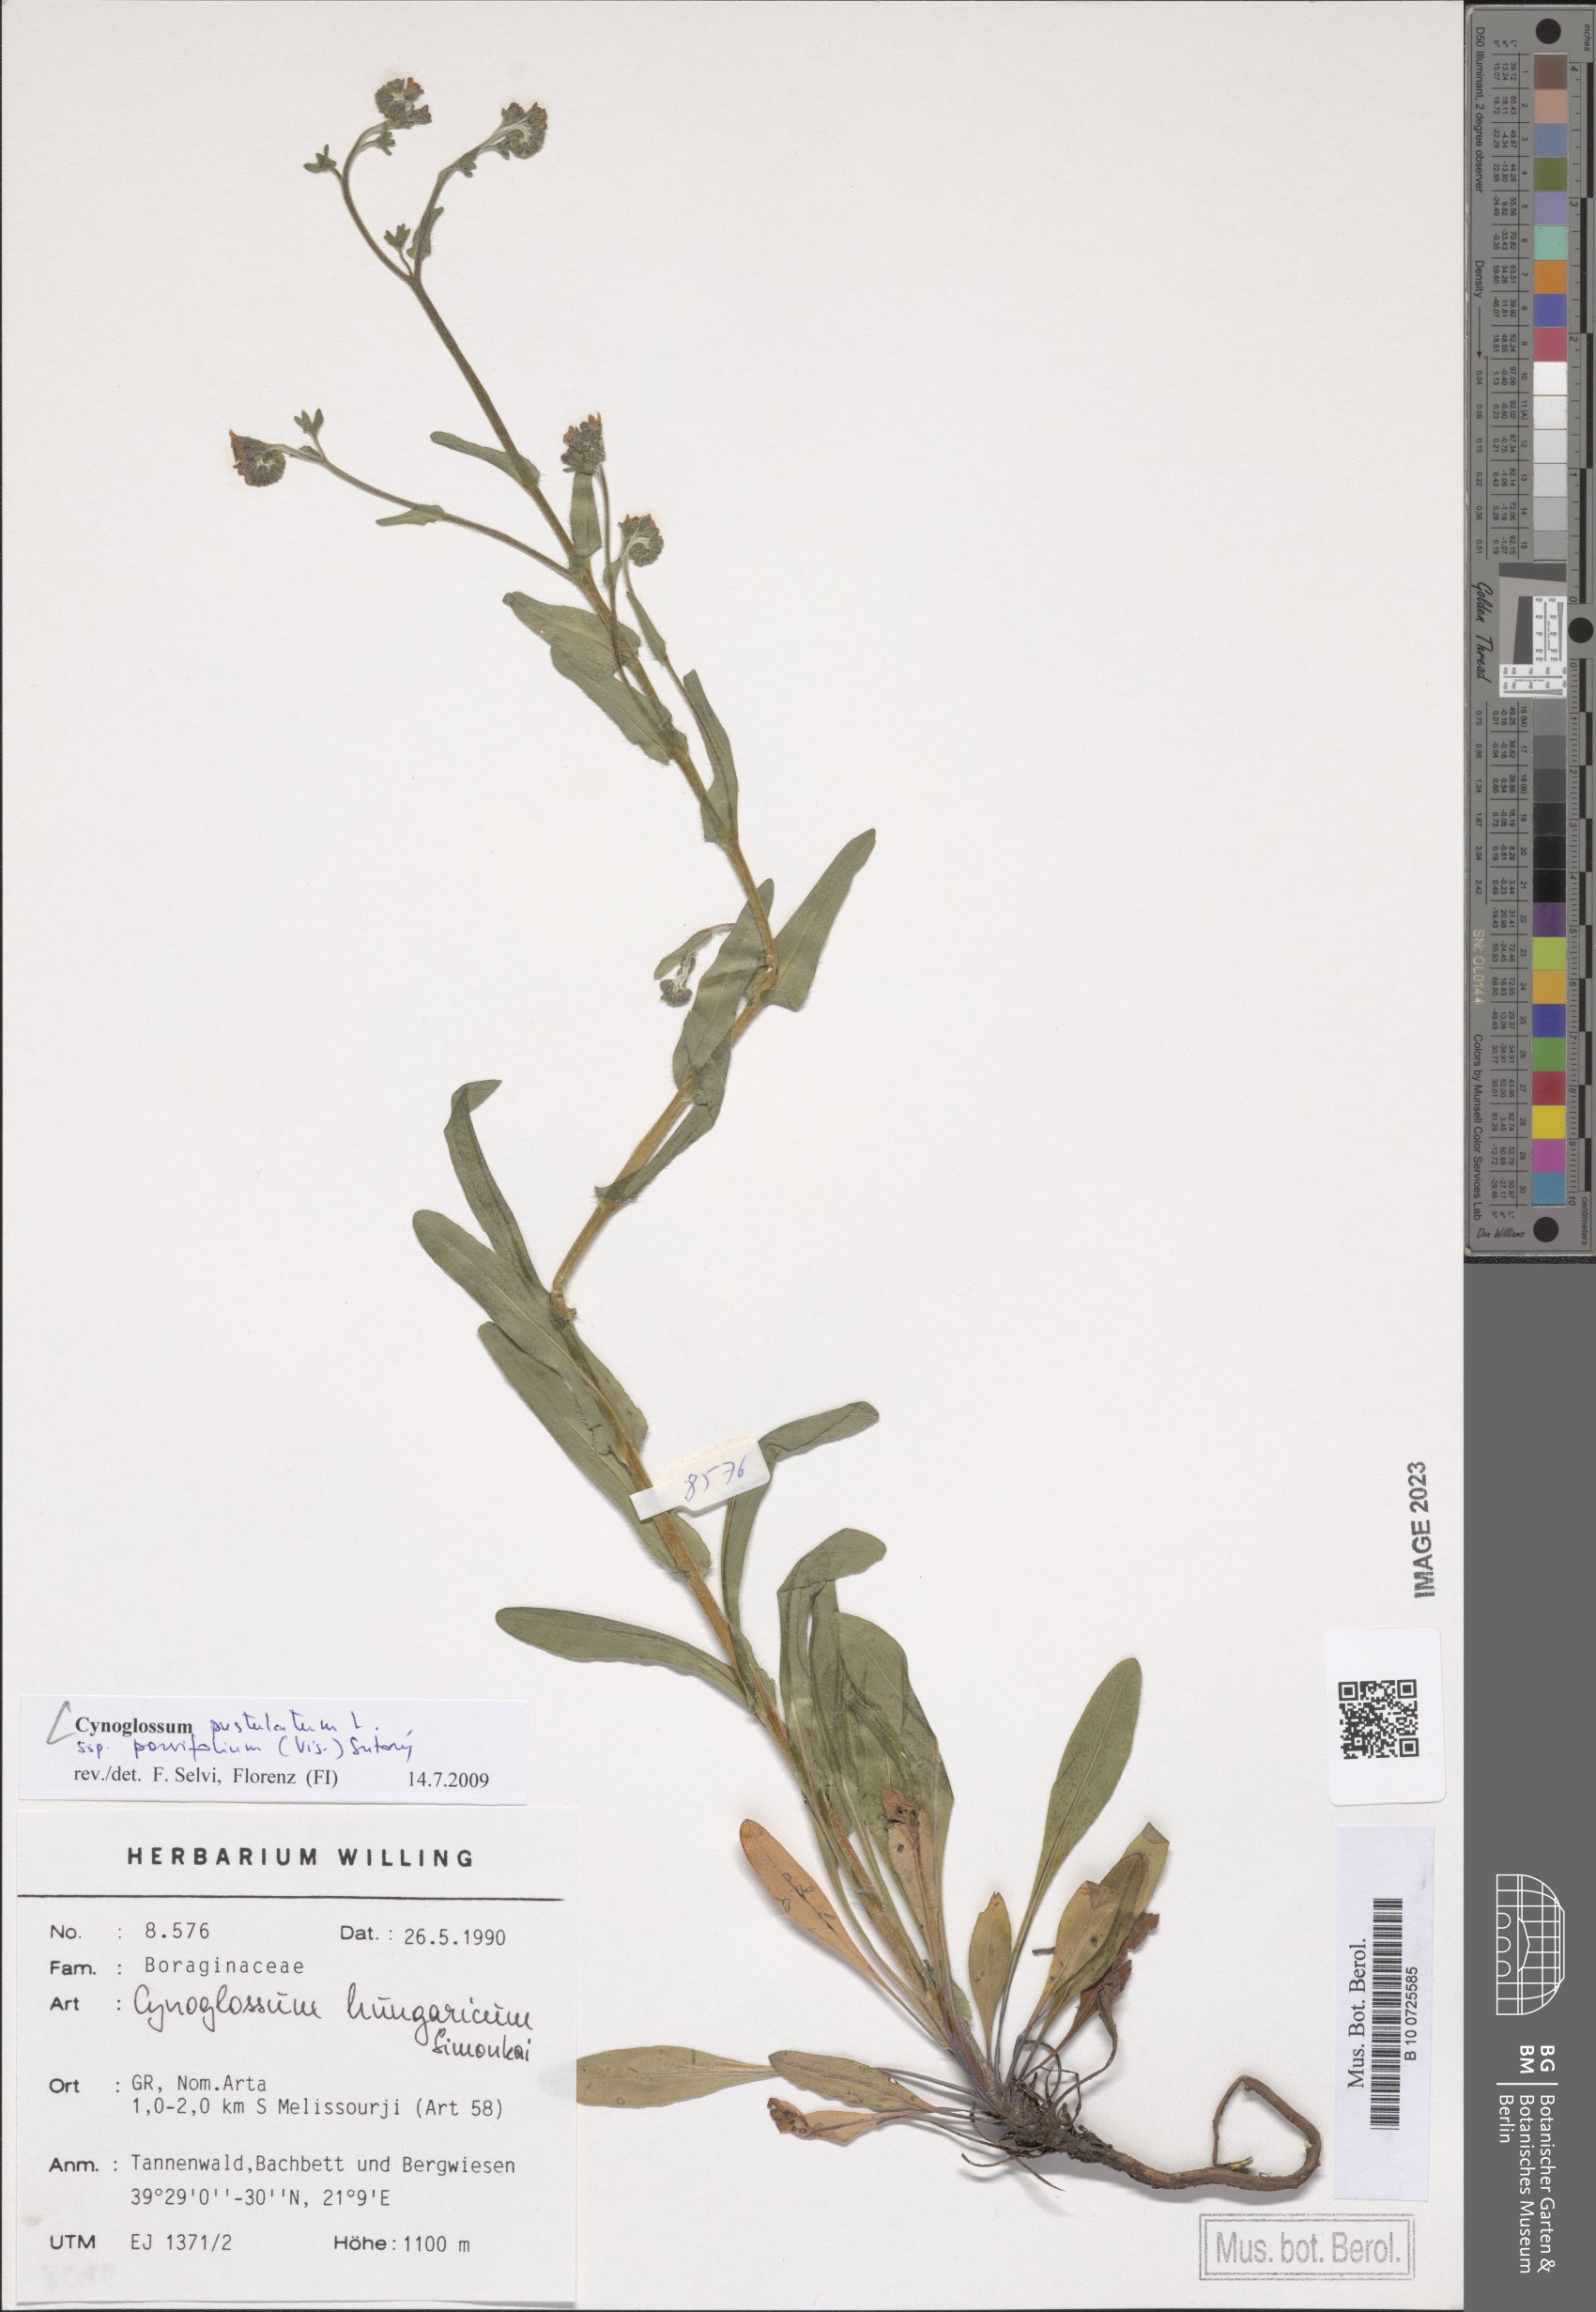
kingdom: Plantae
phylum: Tracheophyta
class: Magnoliopsida
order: Boraginales
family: Boraginaceae
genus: Cynoglossum
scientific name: Cynoglossum pustulatum
